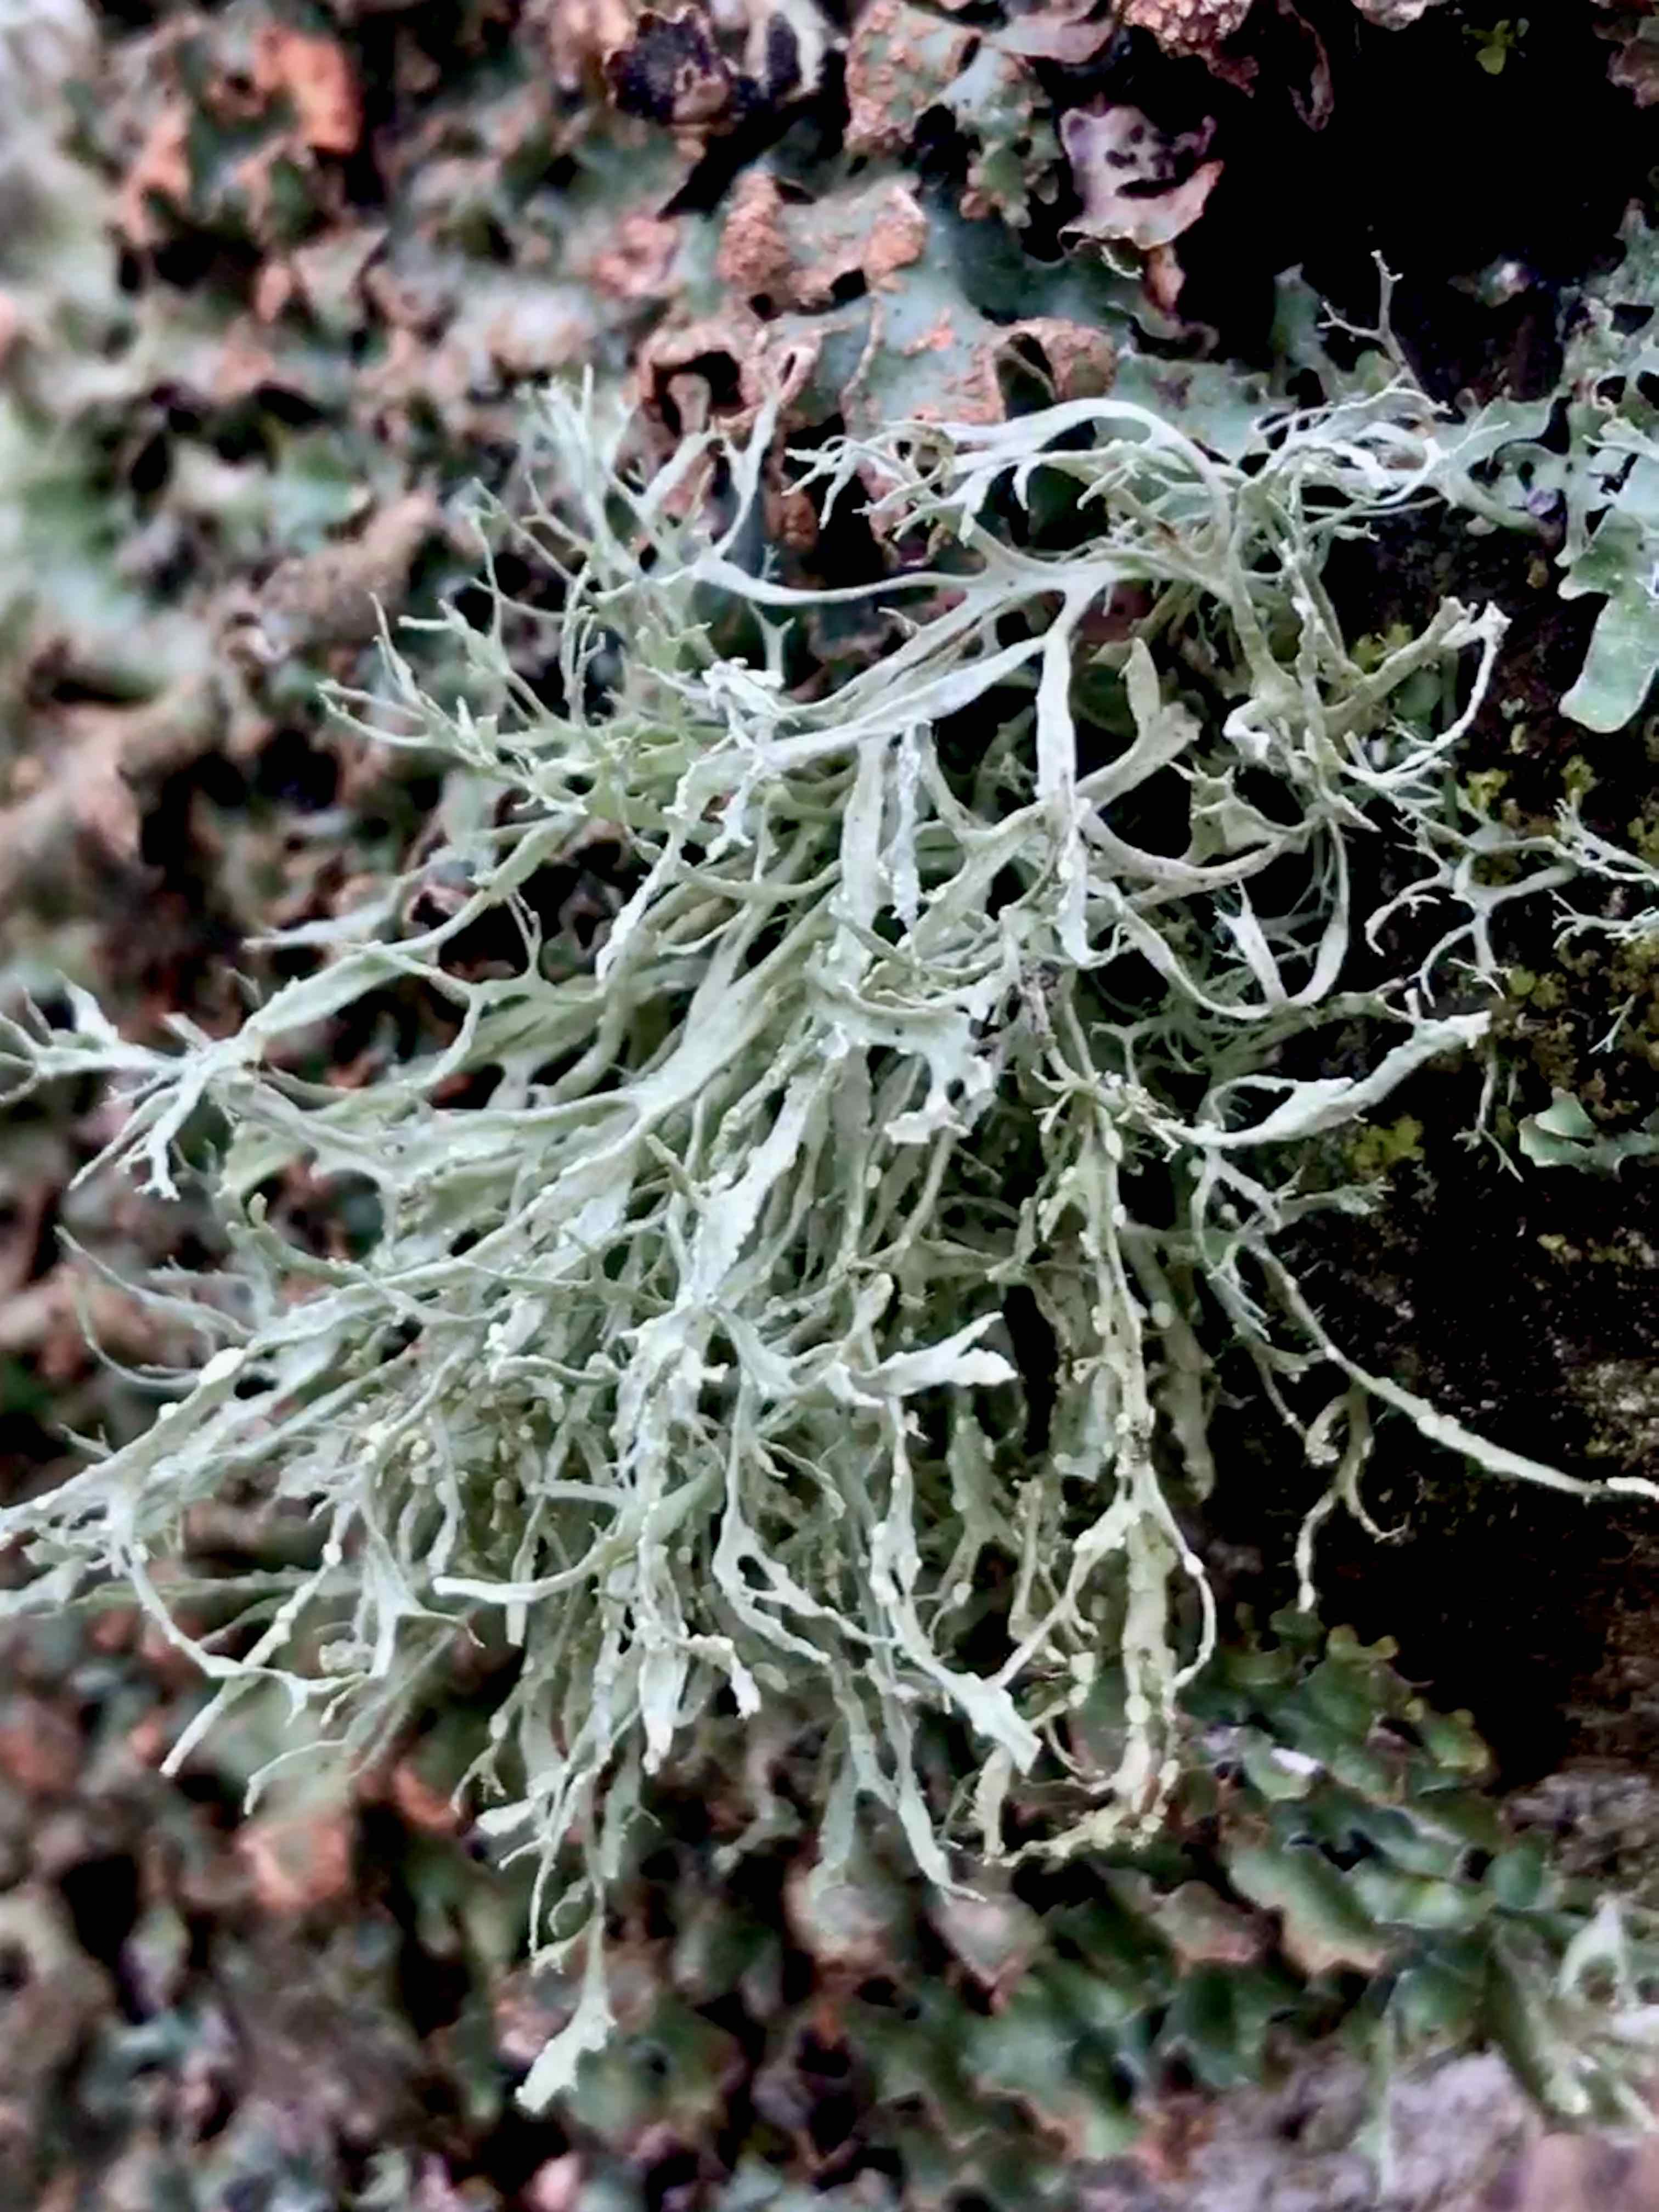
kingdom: Fungi
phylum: Ascomycota
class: Lecanoromycetes
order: Lecanorales
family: Ramalinaceae
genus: Ramalina
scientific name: Ramalina farinacea
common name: melet grenlav
